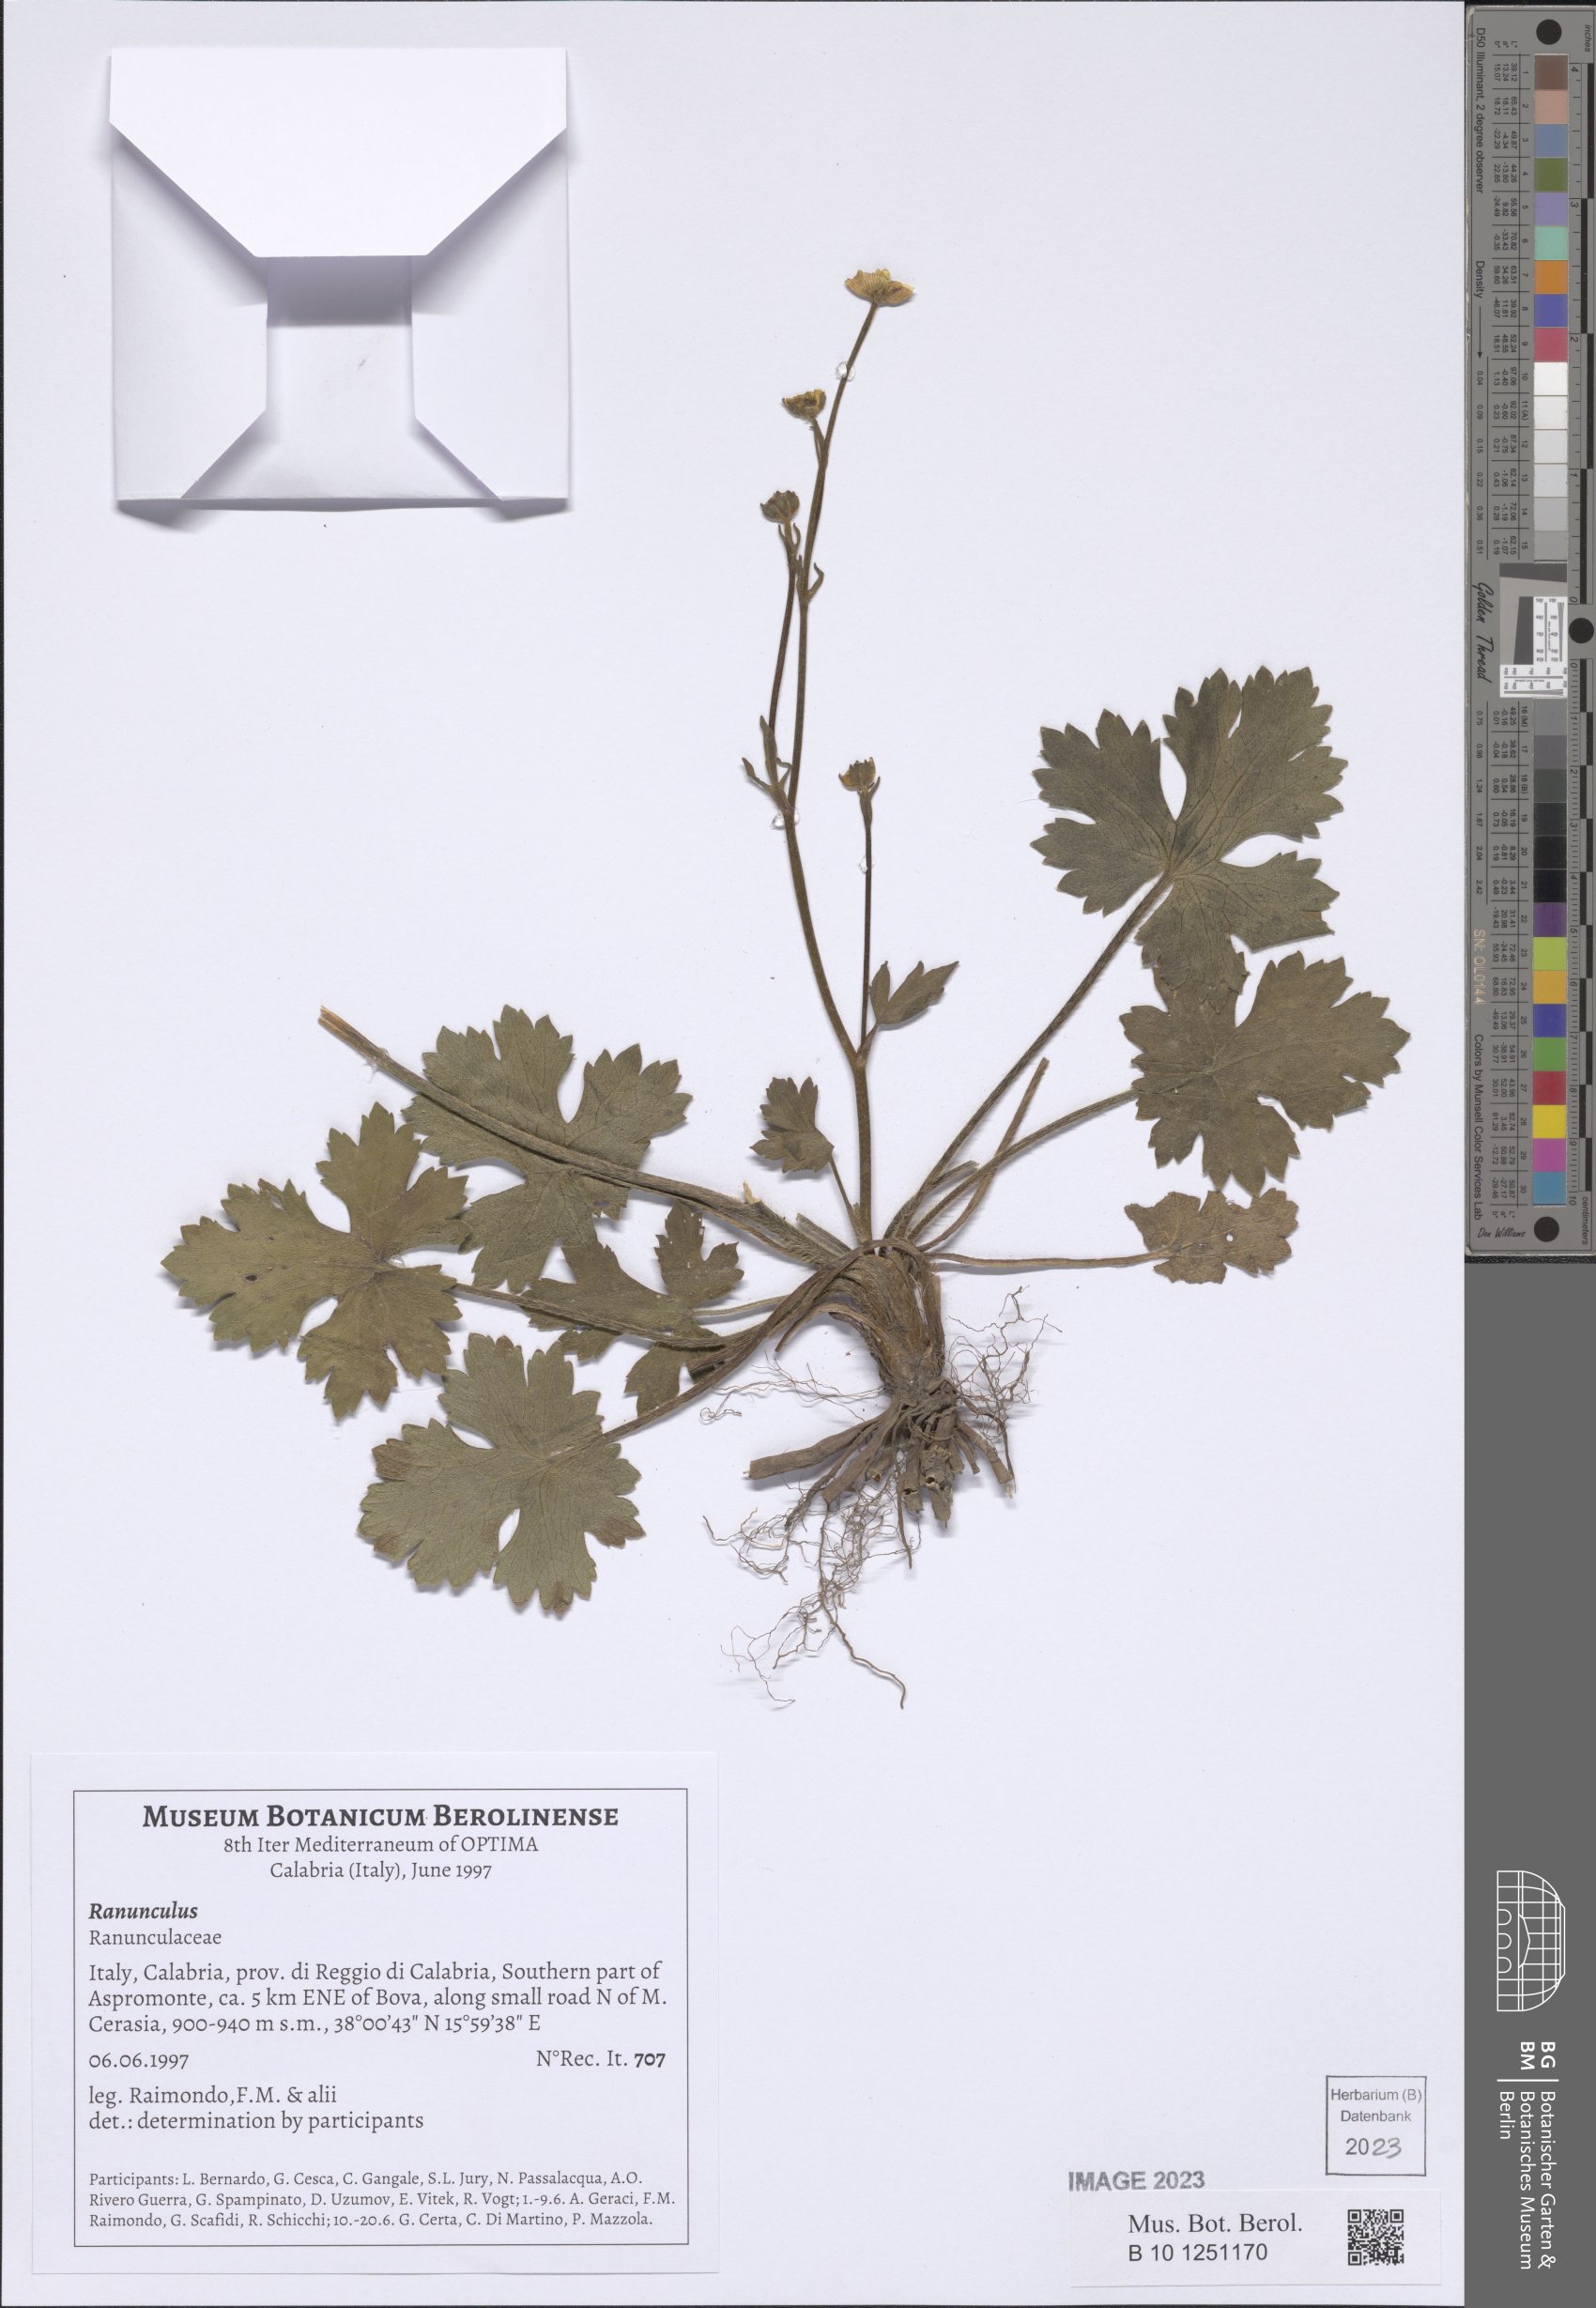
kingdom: Plantae
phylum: Tracheophyta
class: Magnoliopsida
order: Ranunculales
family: Ranunculaceae
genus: Ranunculus
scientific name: Ranunculus
